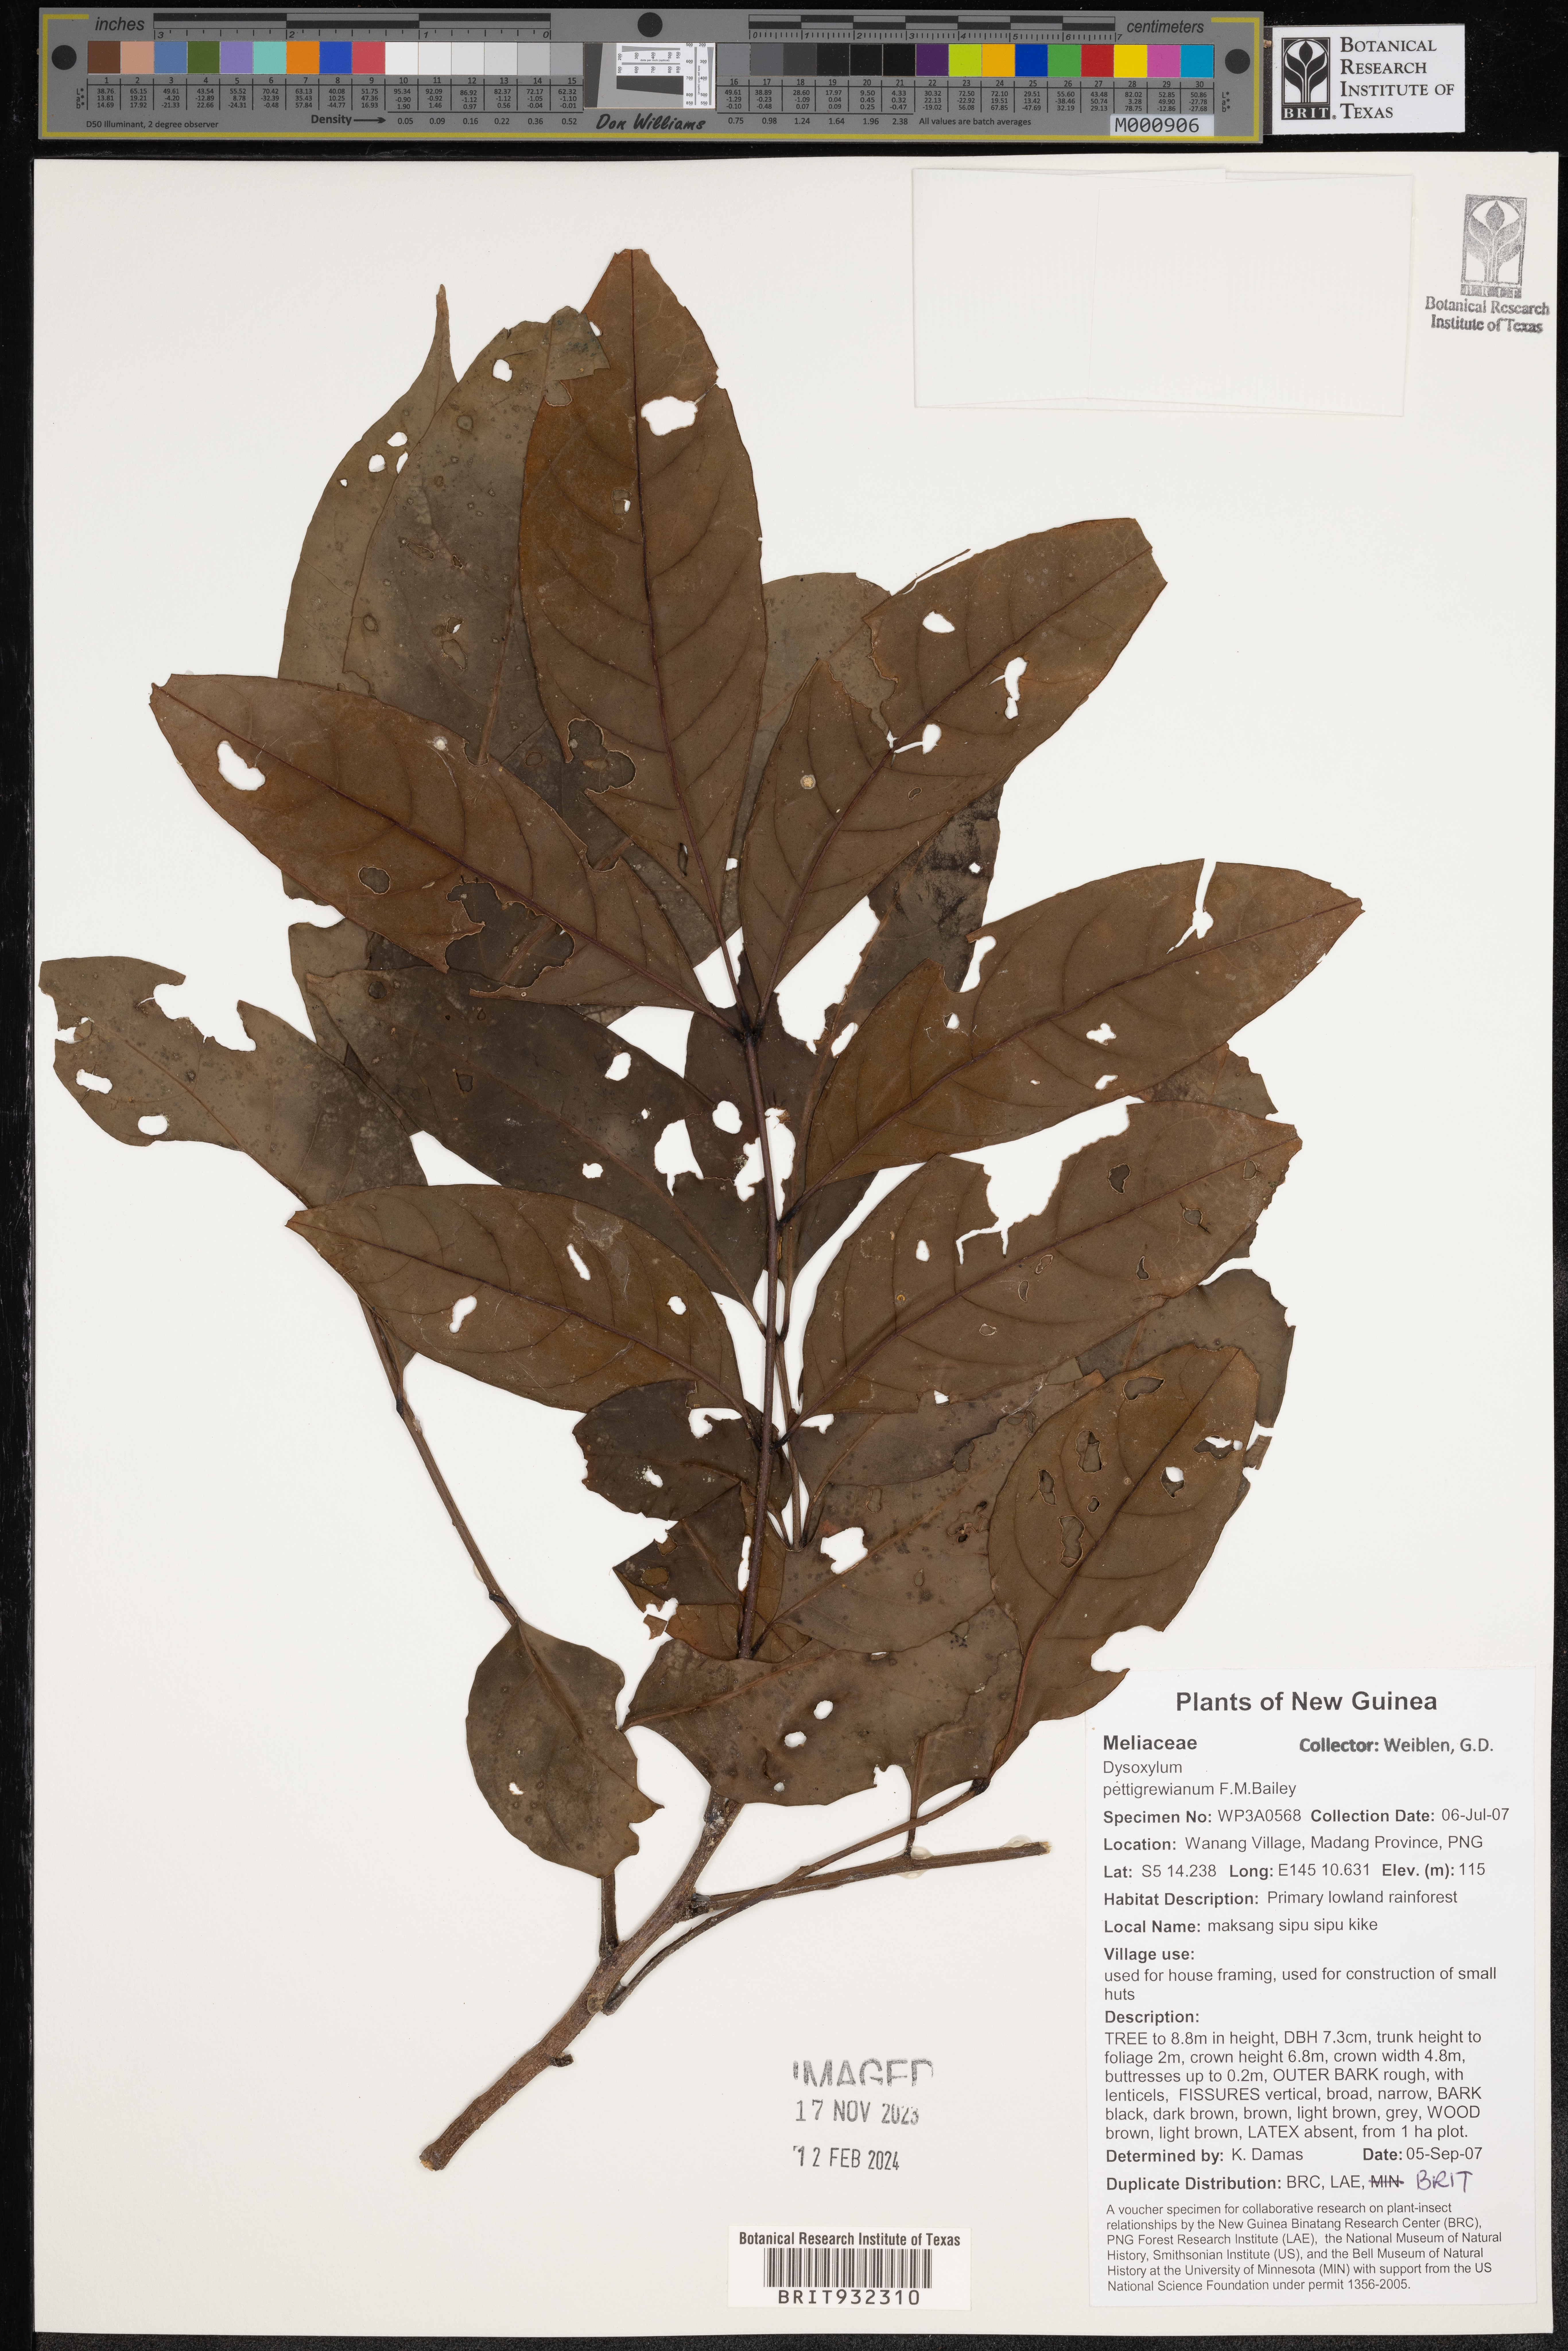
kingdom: Plantae
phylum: Tracheophyta
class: Magnoliopsida
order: Sapindales
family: Meliaceae
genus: Dysoxylum
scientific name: Dysoxylum
